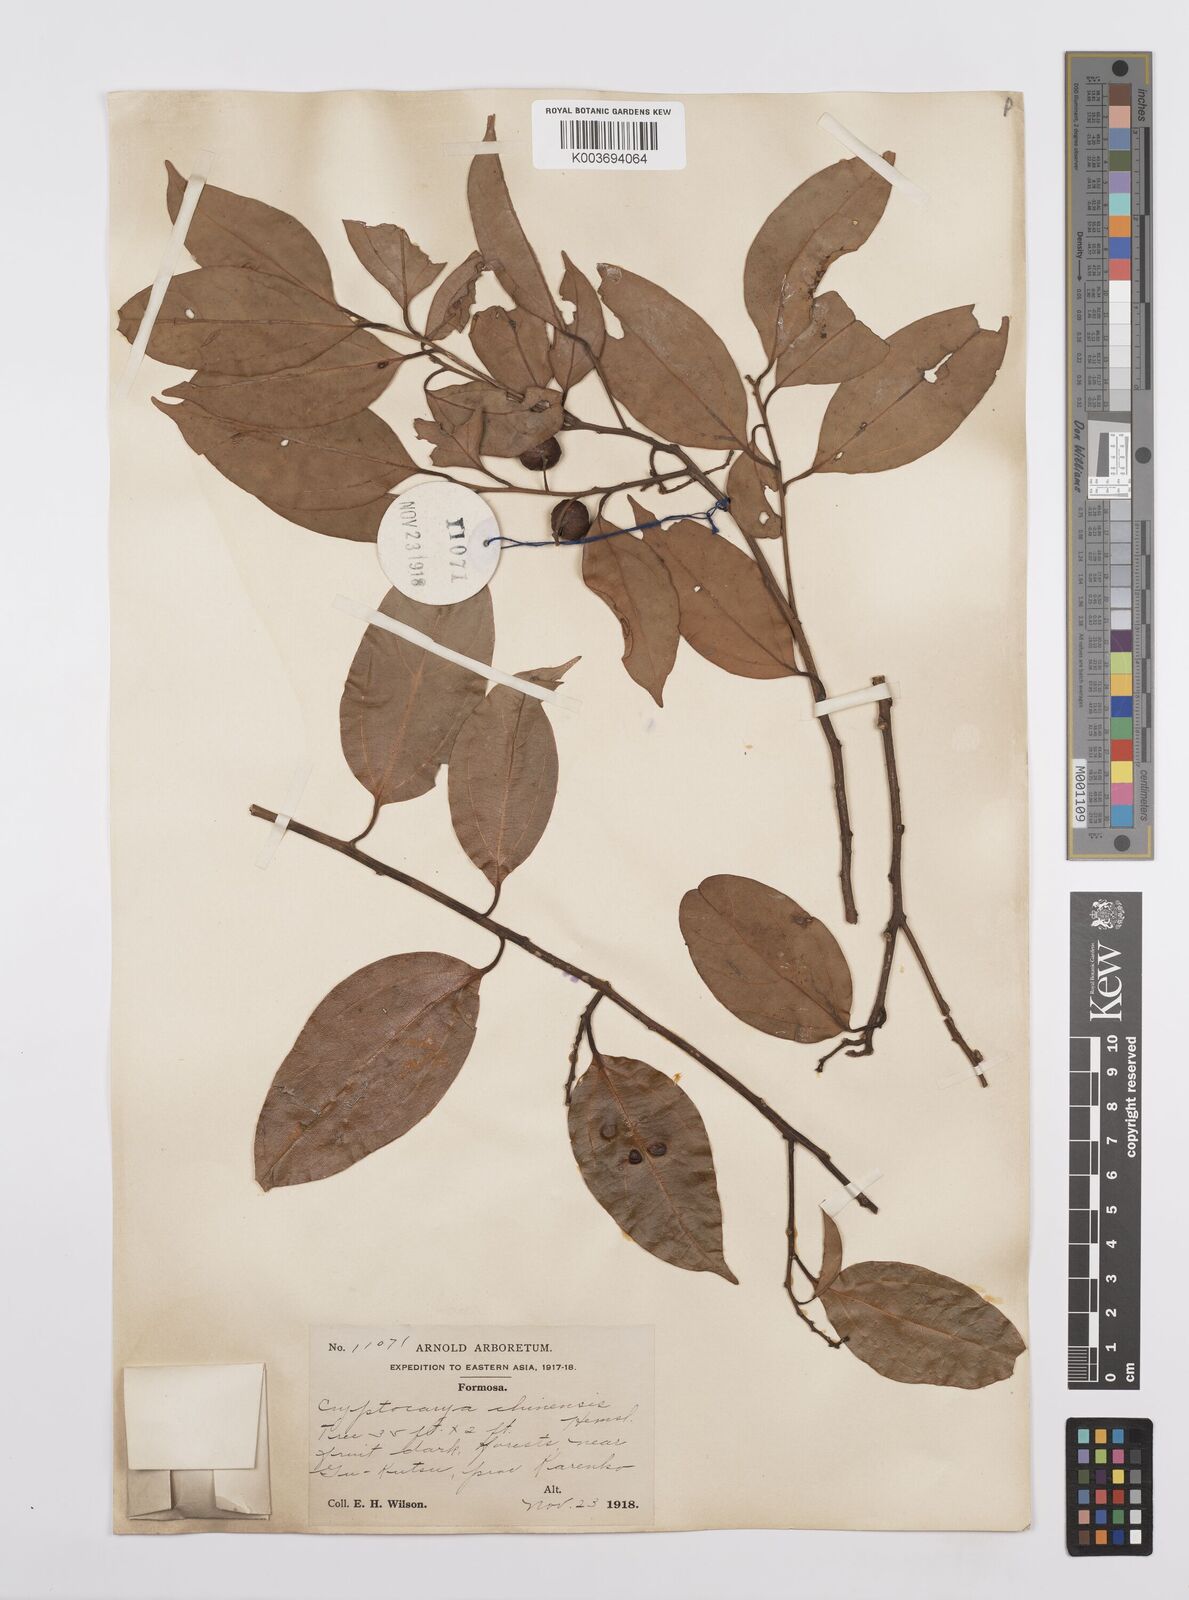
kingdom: Plantae
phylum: Tracheophyta
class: Magnoliopsida
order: Laurales
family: Lauraceae
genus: Cryptocarya
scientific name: Cryptocarya chinensis
